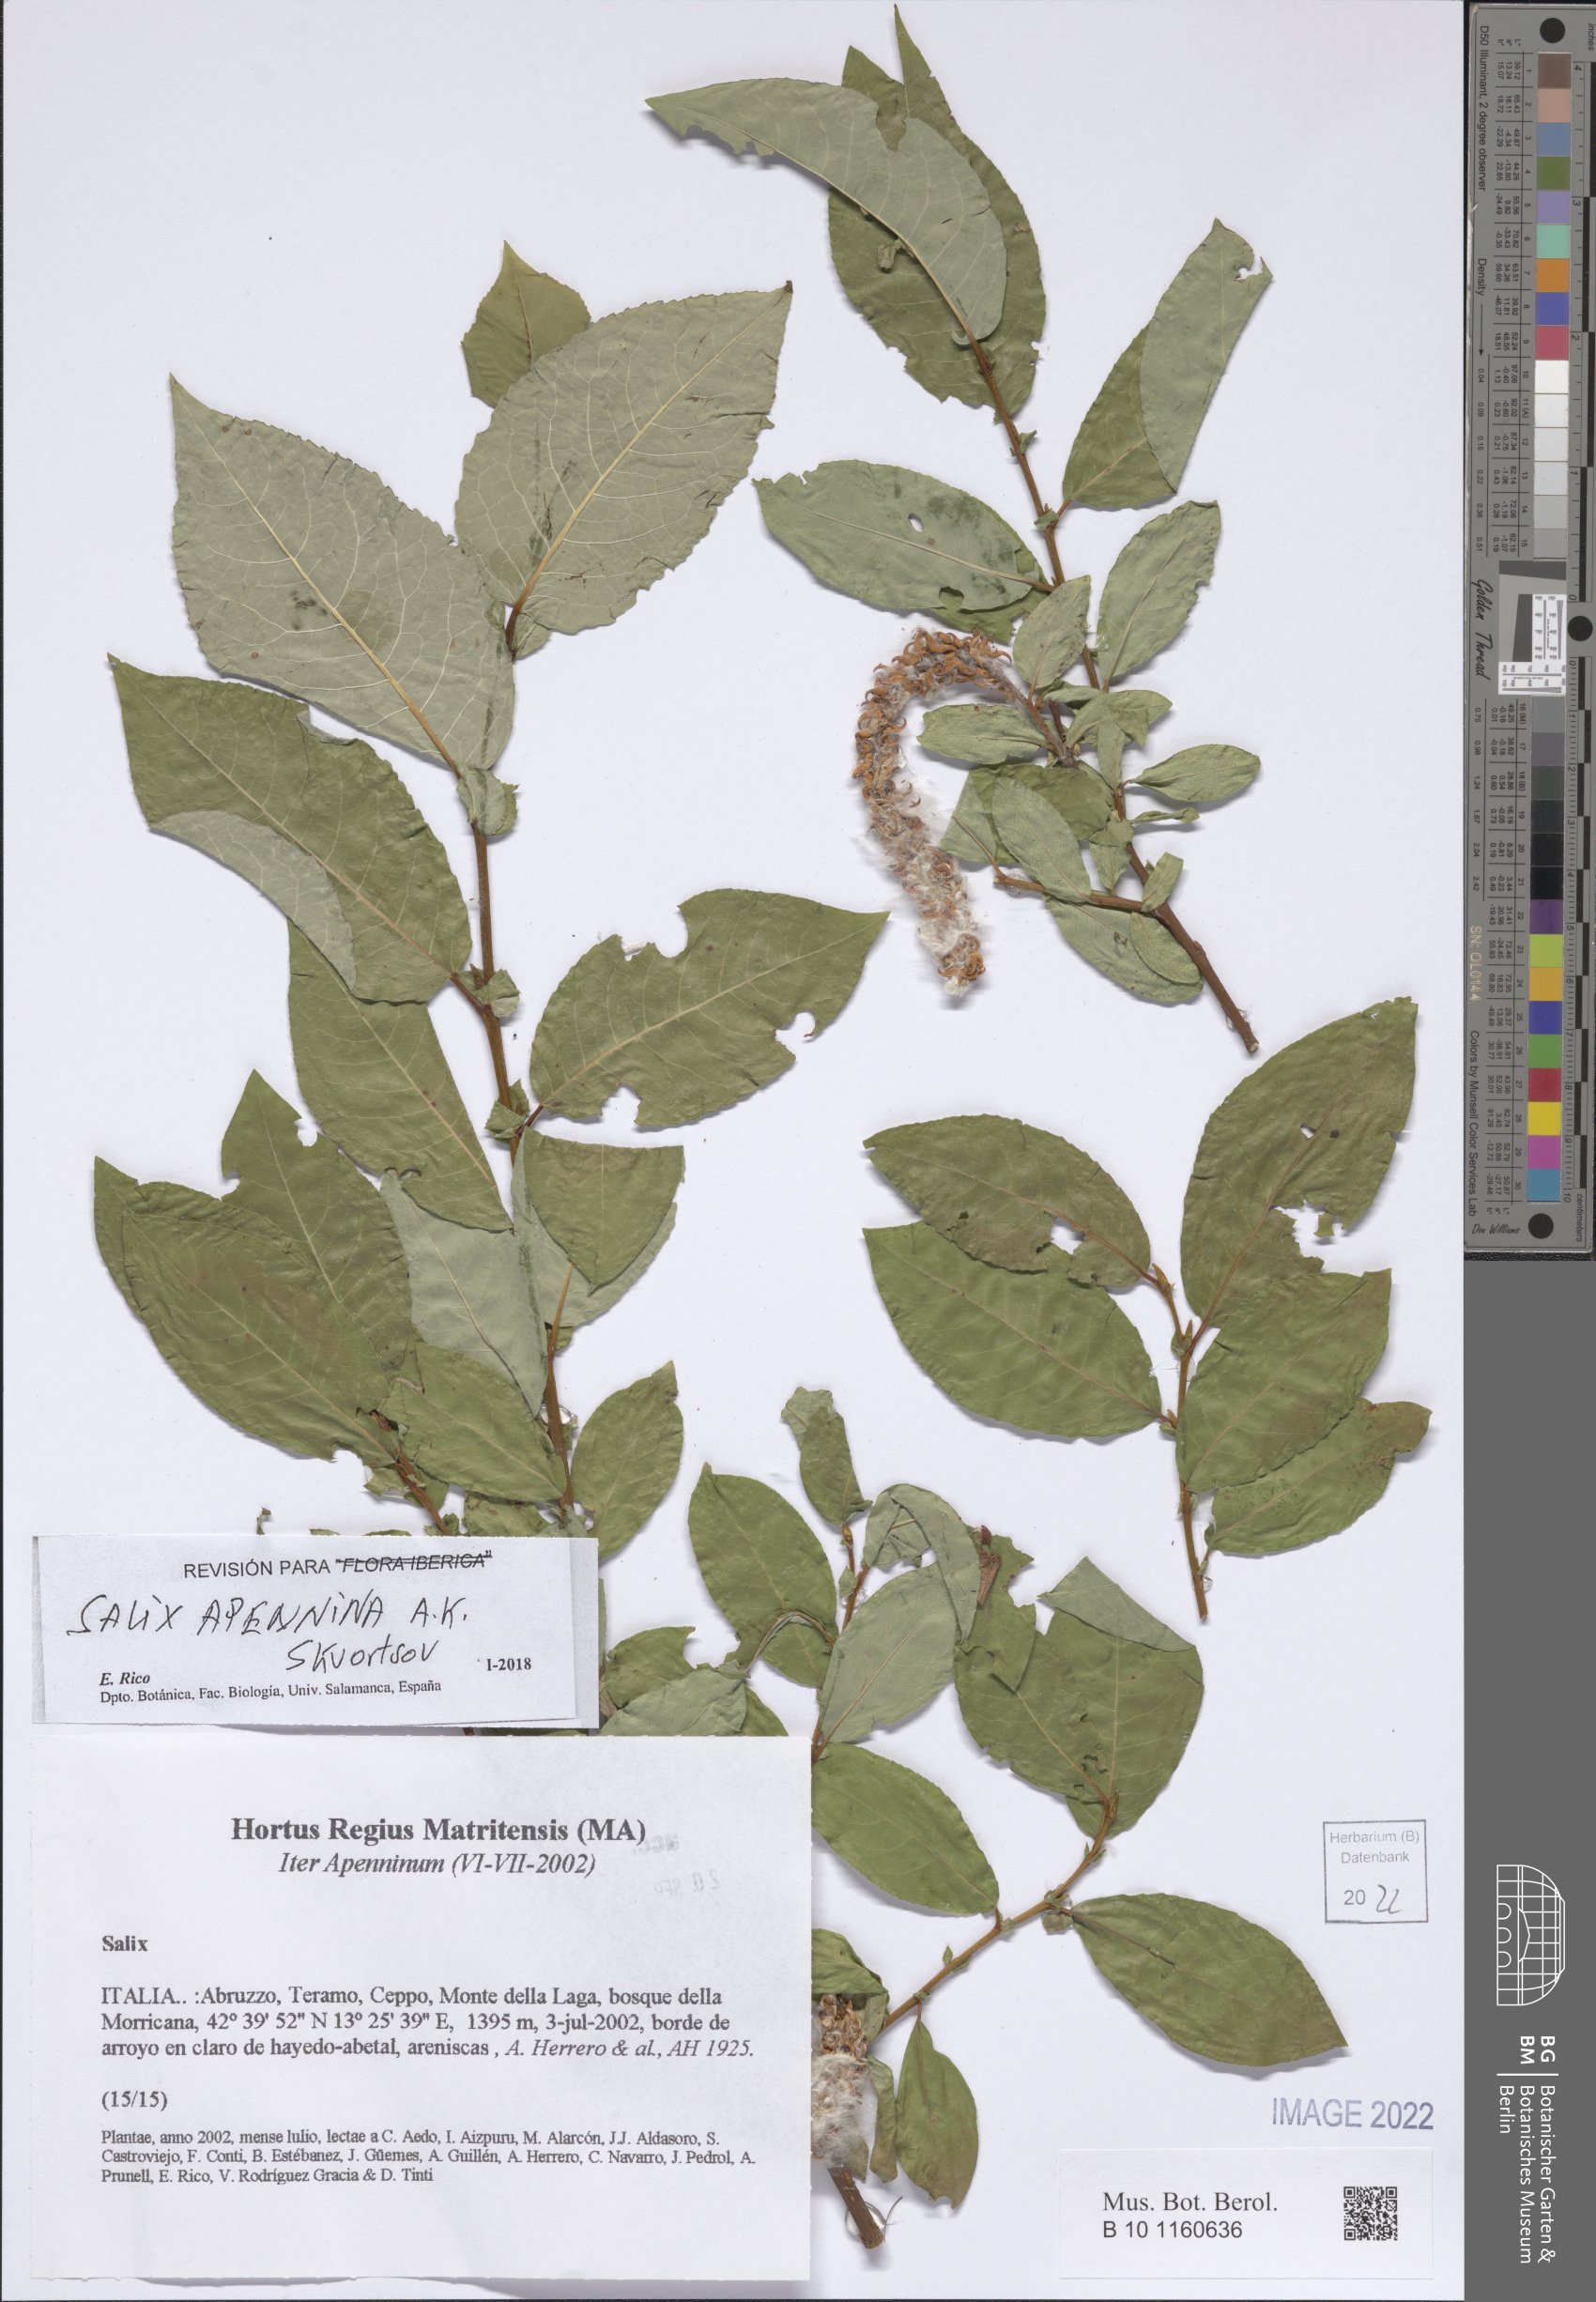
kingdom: Plantae
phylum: Tracheophyta
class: Magnoliopsida
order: Malpighiales
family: Salicaceae
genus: Salix
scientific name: Salix apennina
